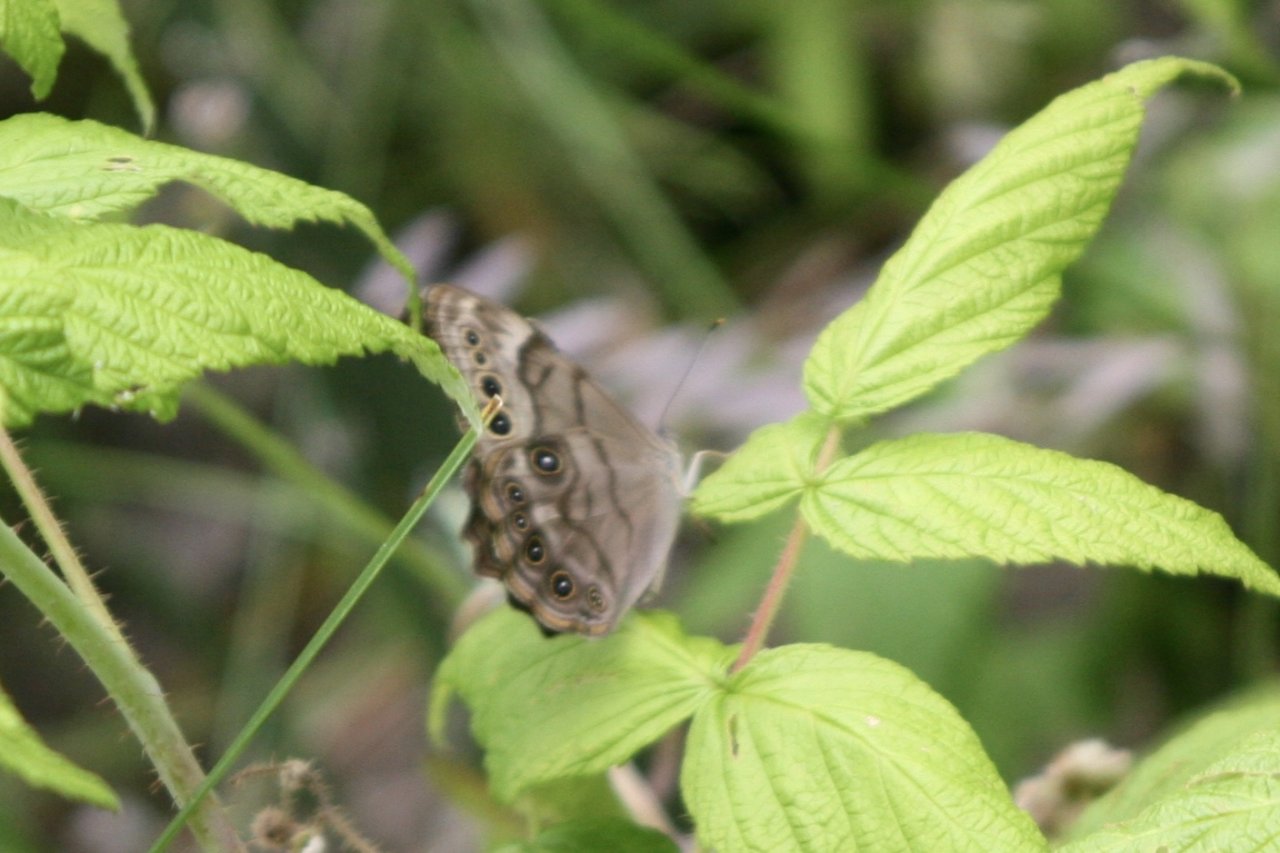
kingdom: Animalia
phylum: Arthropoda
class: Insecta
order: Lepidoptera
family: Nymphalidae
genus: Lethe
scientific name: Lethe anthedon
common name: Northern Pearly-Eye
